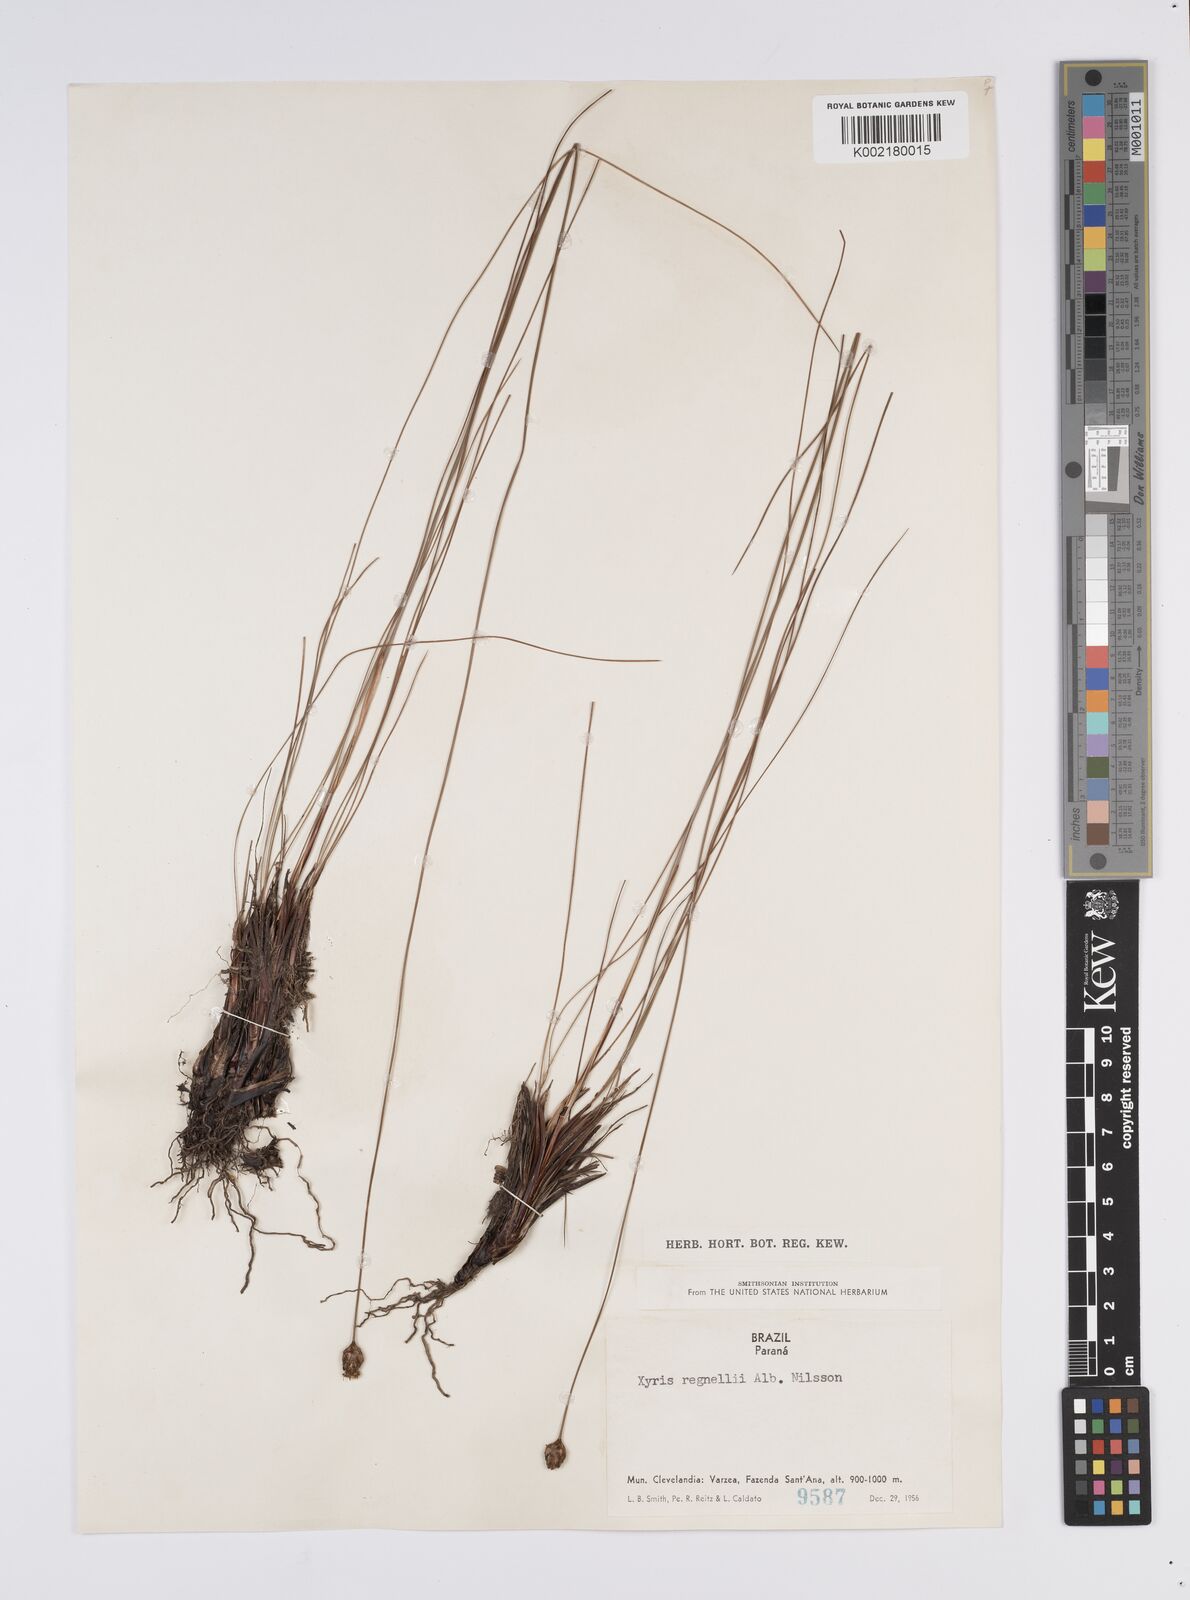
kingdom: Plantae
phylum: Tracheophyta
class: Liliopsida
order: Poales
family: Xyridaceae
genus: Xyris
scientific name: Xyris regnellii
